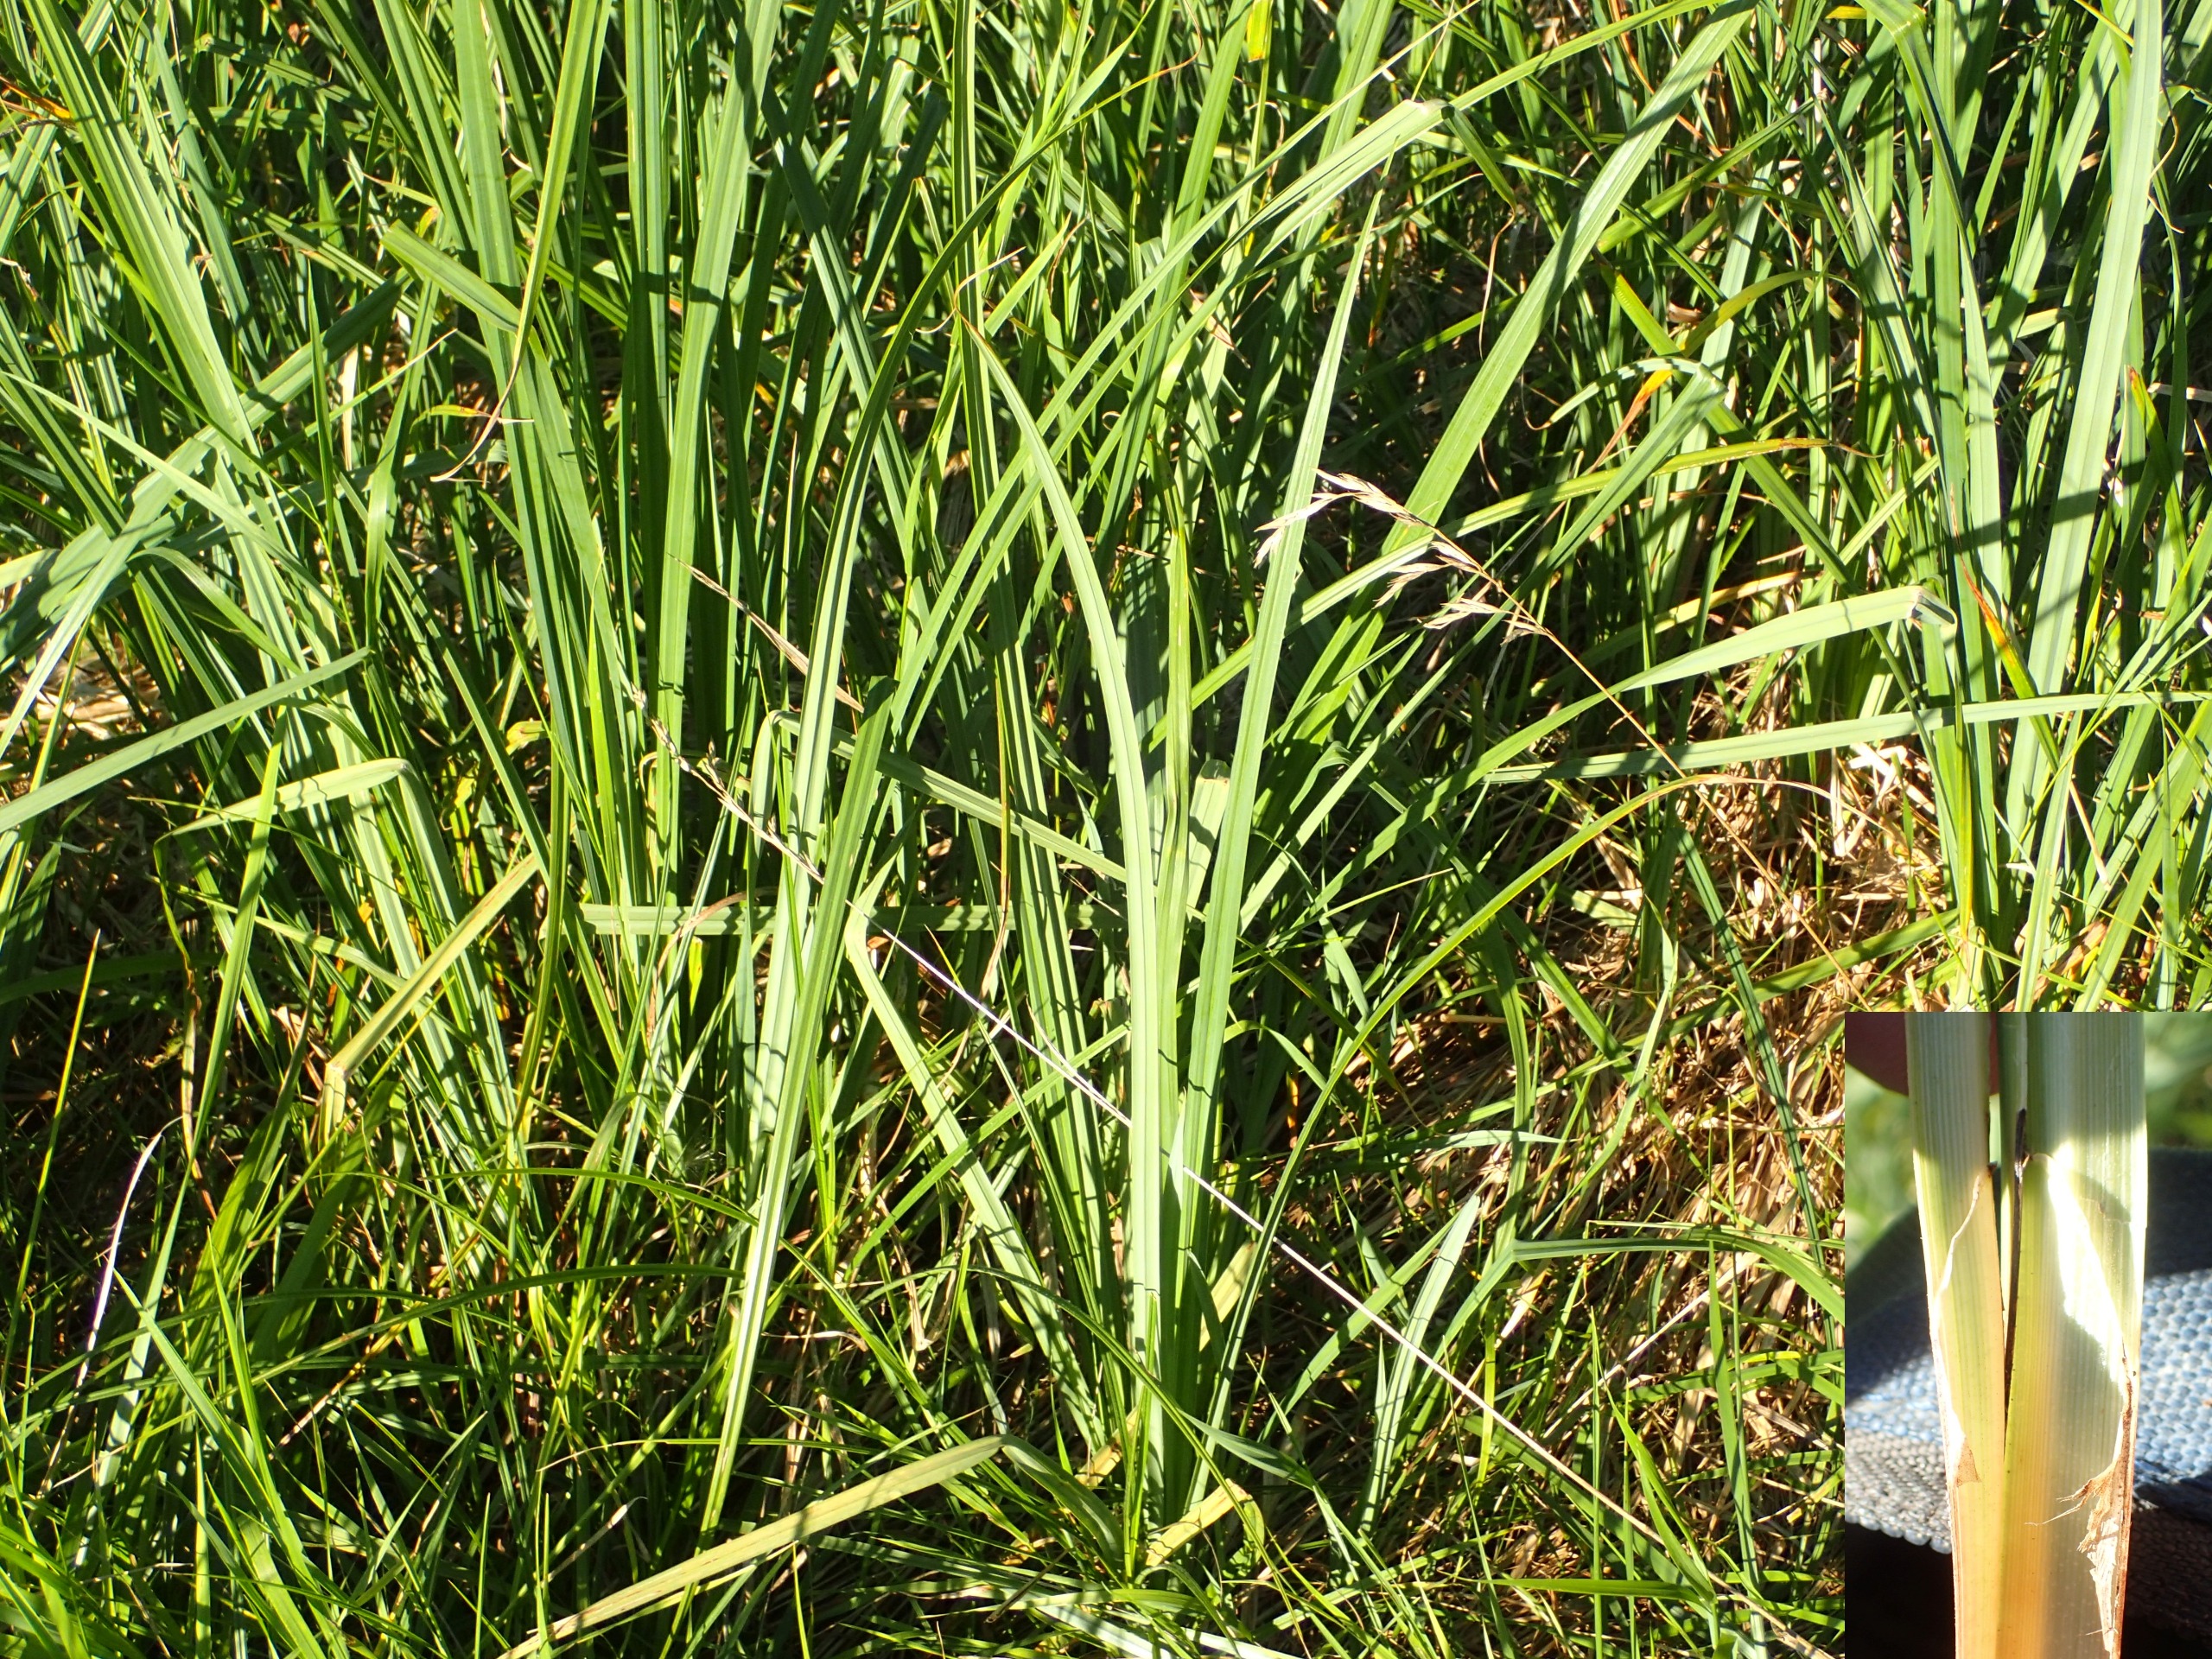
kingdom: Plantae
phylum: Tracheophyta
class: Liliopsida
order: Poales
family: Cyperaceae
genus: Carex
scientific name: Carex acutiformis
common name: Kær-star
